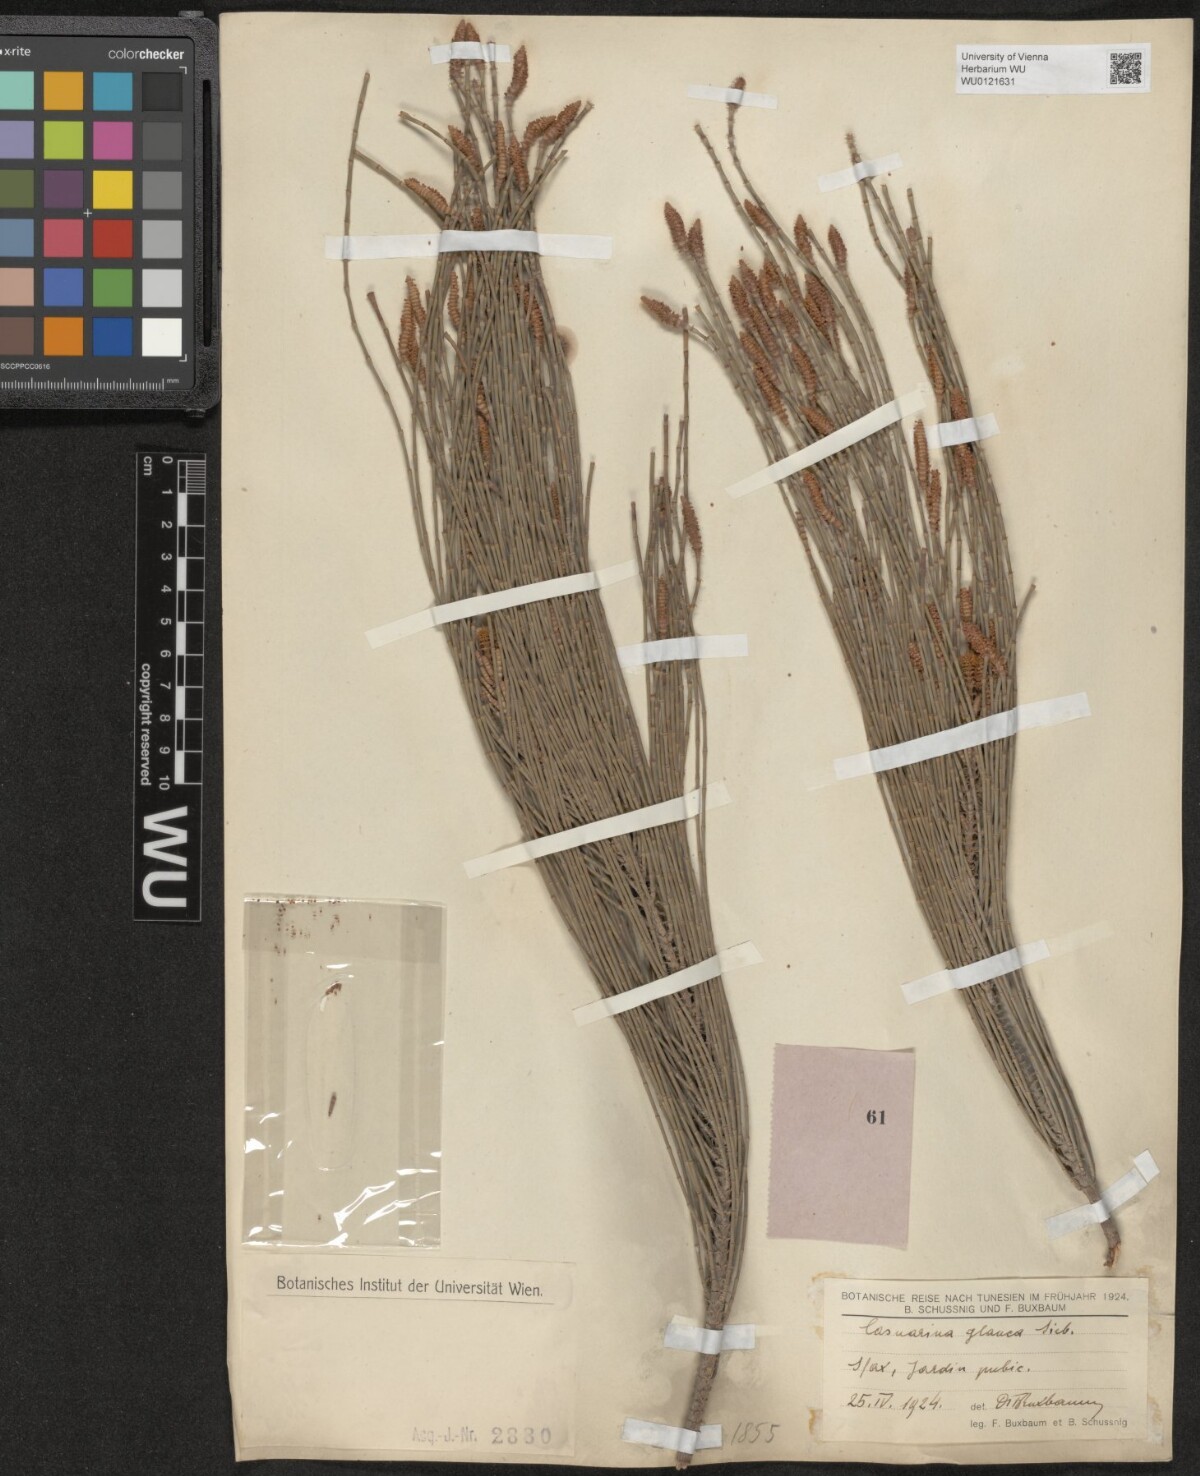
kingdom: Plantae
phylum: Tracheophyta
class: Magnoliopsida
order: Fagales
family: Casuarinaceae
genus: Casuarina
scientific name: Casuarina glauca
